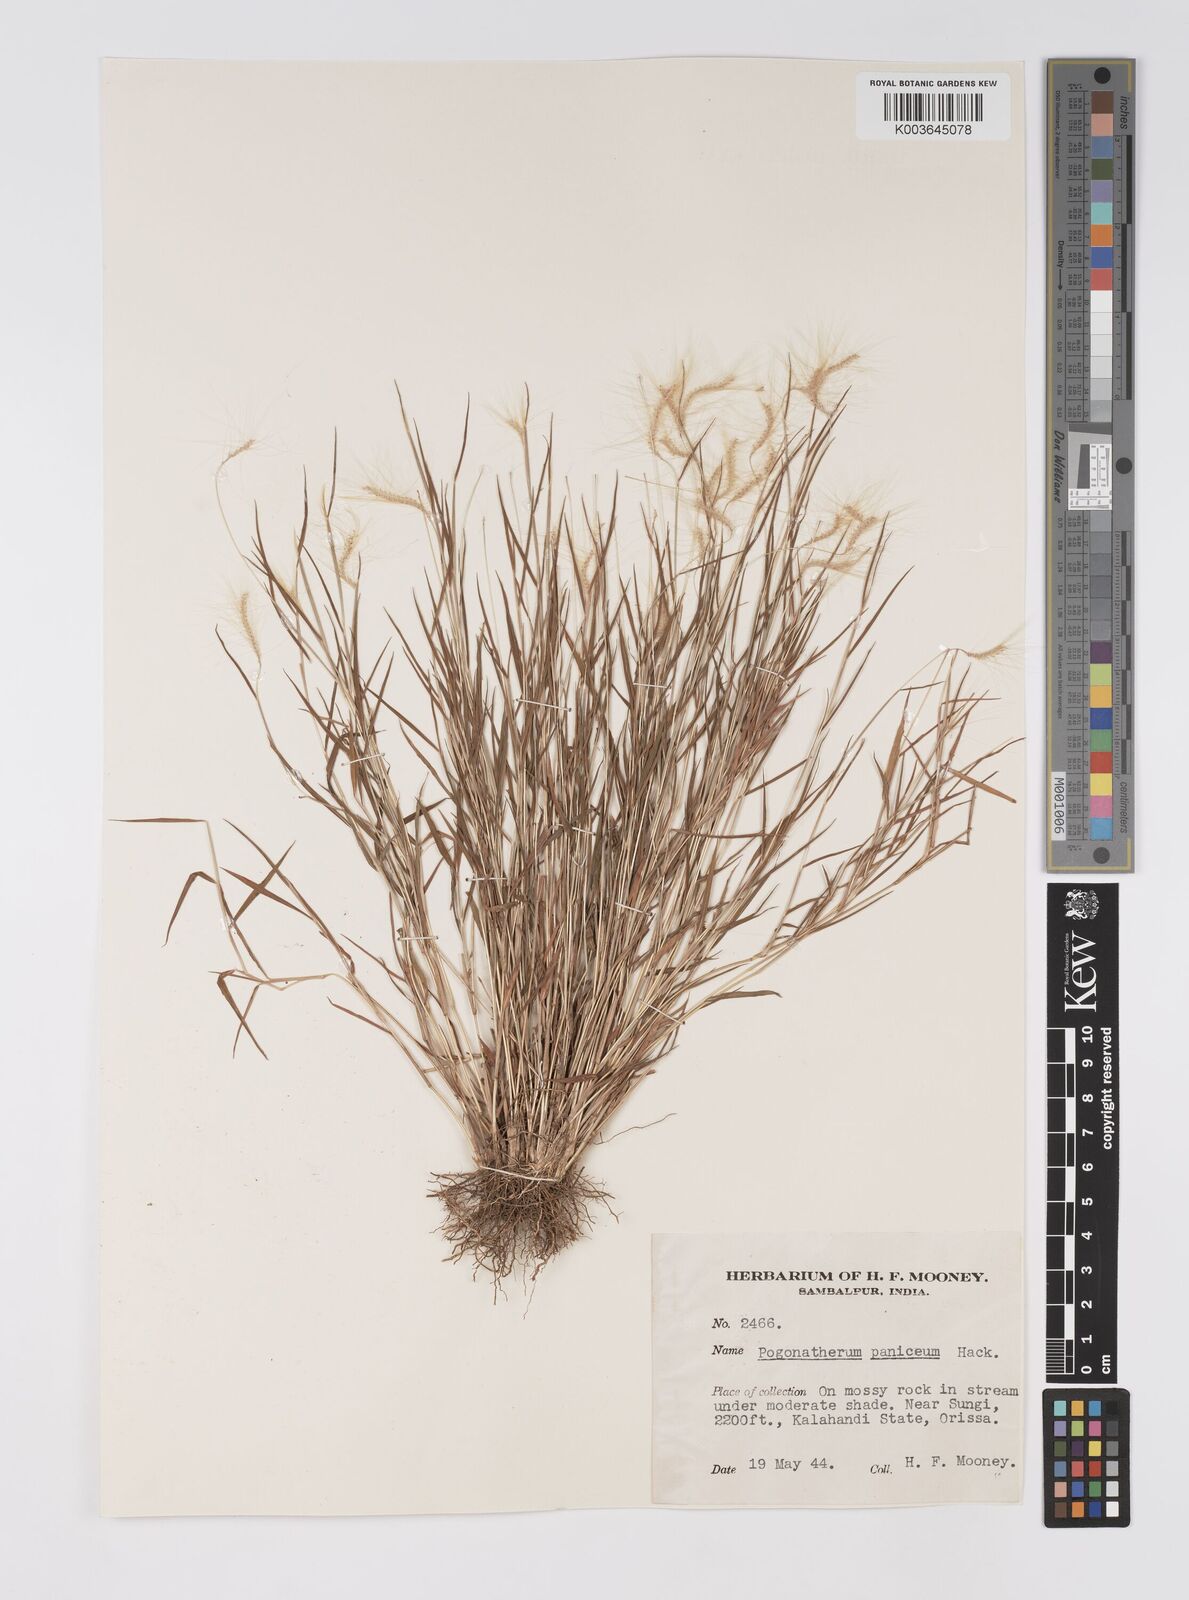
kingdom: Plantae
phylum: Tracheophyta
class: Liliopsida
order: Poales
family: Poaceae
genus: Pogonatherum
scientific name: Pogonatherum crinitum
